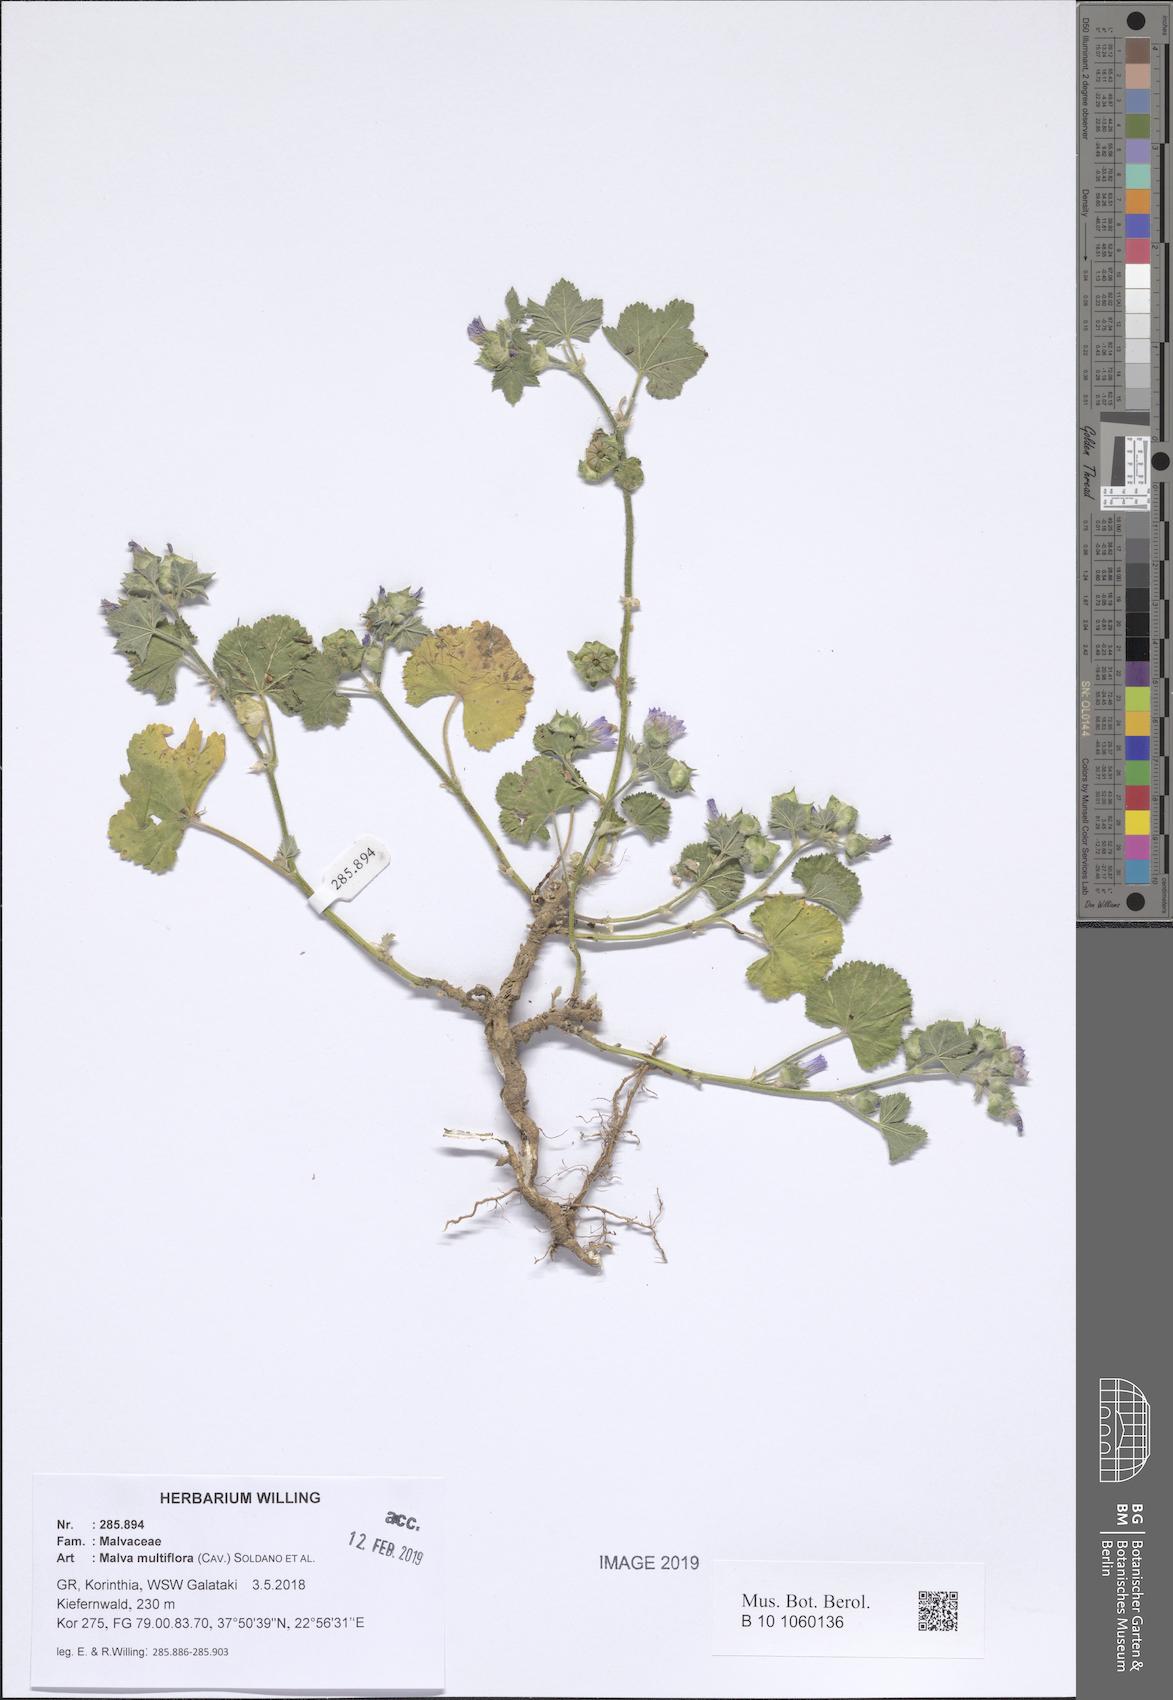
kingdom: Plantae
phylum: Tracheophyta
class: Magnoliopsida
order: Malvales
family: Malvaceae
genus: Malva
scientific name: Malva multiflora
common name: Cheeseweed
